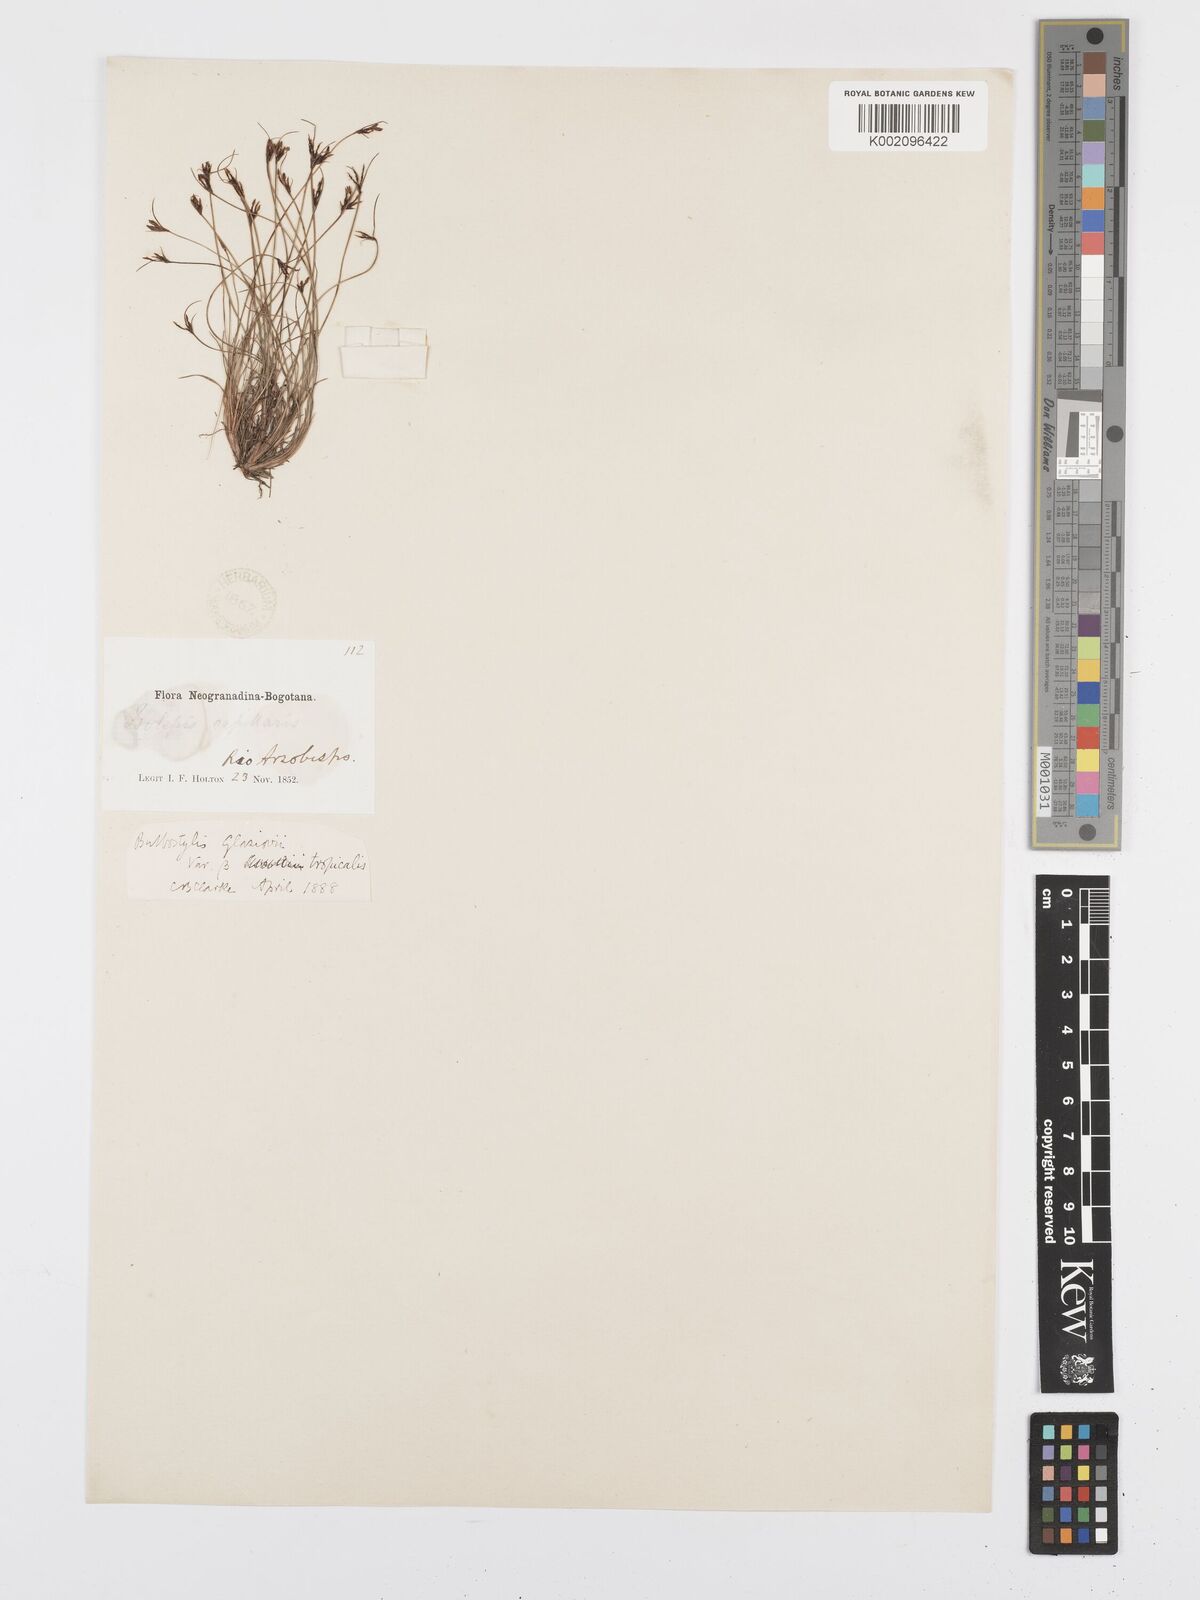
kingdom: Plantae
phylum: Tracheophyta
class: Liliopsida
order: Poales
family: Cyperaceae
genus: Bulbostylis
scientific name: Bulbostylis juncoides
